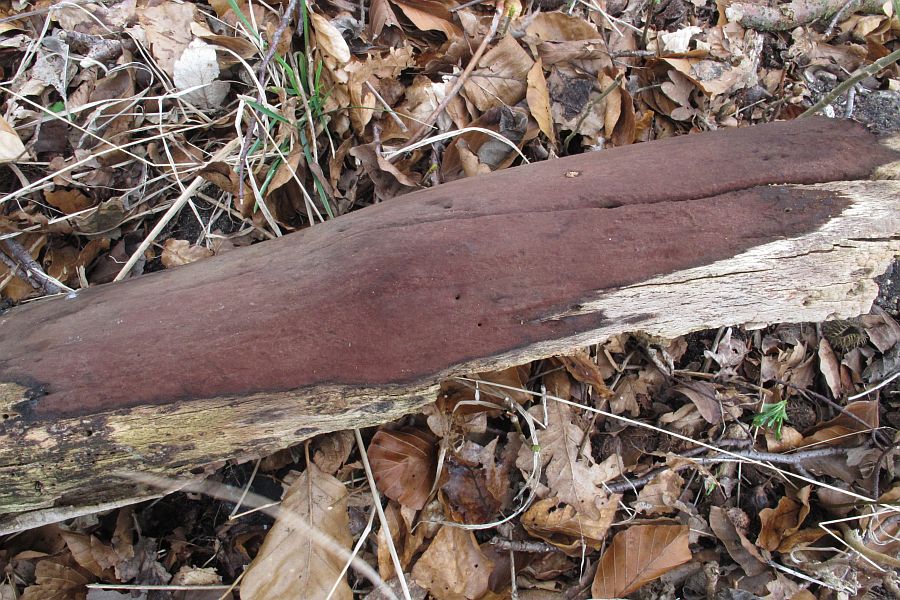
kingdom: Fungi
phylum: Ascomycota
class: Sordariomycetes
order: Xylariales
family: Hypoxylaceae
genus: Hypoxylon
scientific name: Hypoxylon macrocarpum
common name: skorpe-kulbær
